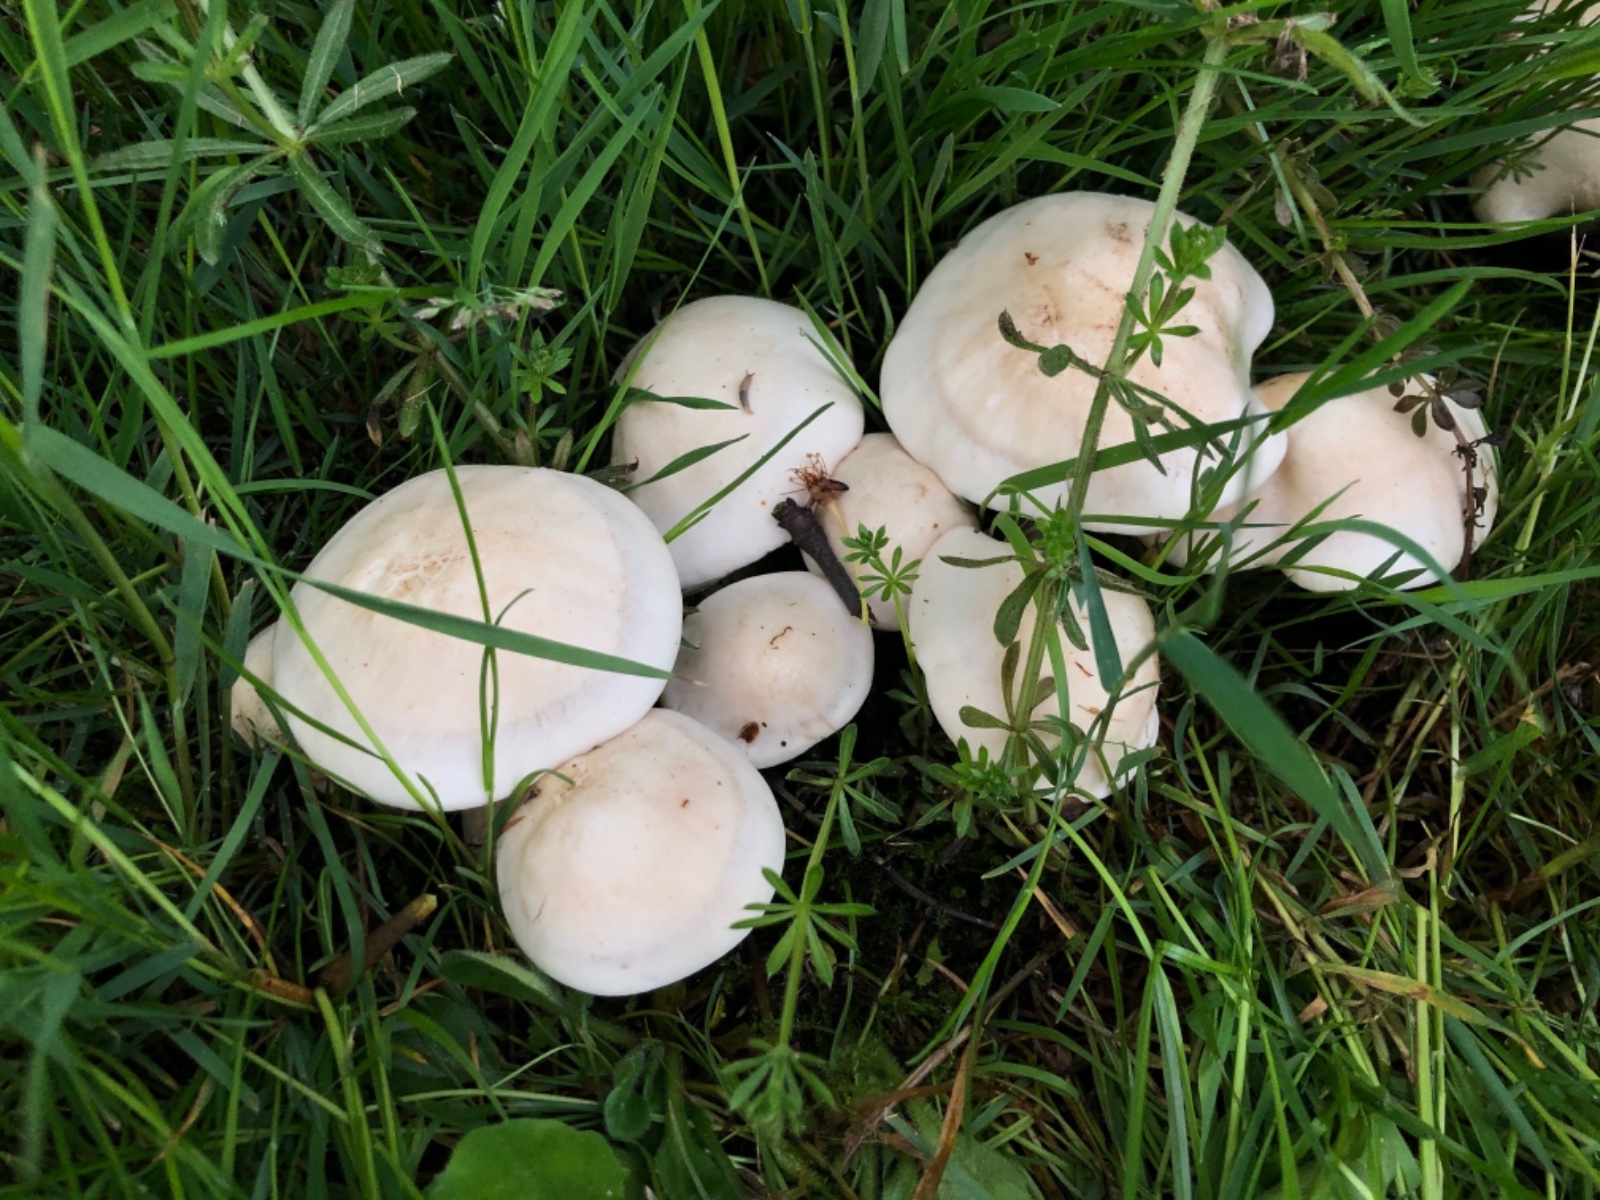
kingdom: Fungi
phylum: Basidiomycota
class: Agaricomycetes
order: Agaricales
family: Lyophyllaceae
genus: Calocybe
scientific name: Calocybe gambosa
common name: vårmusseron
